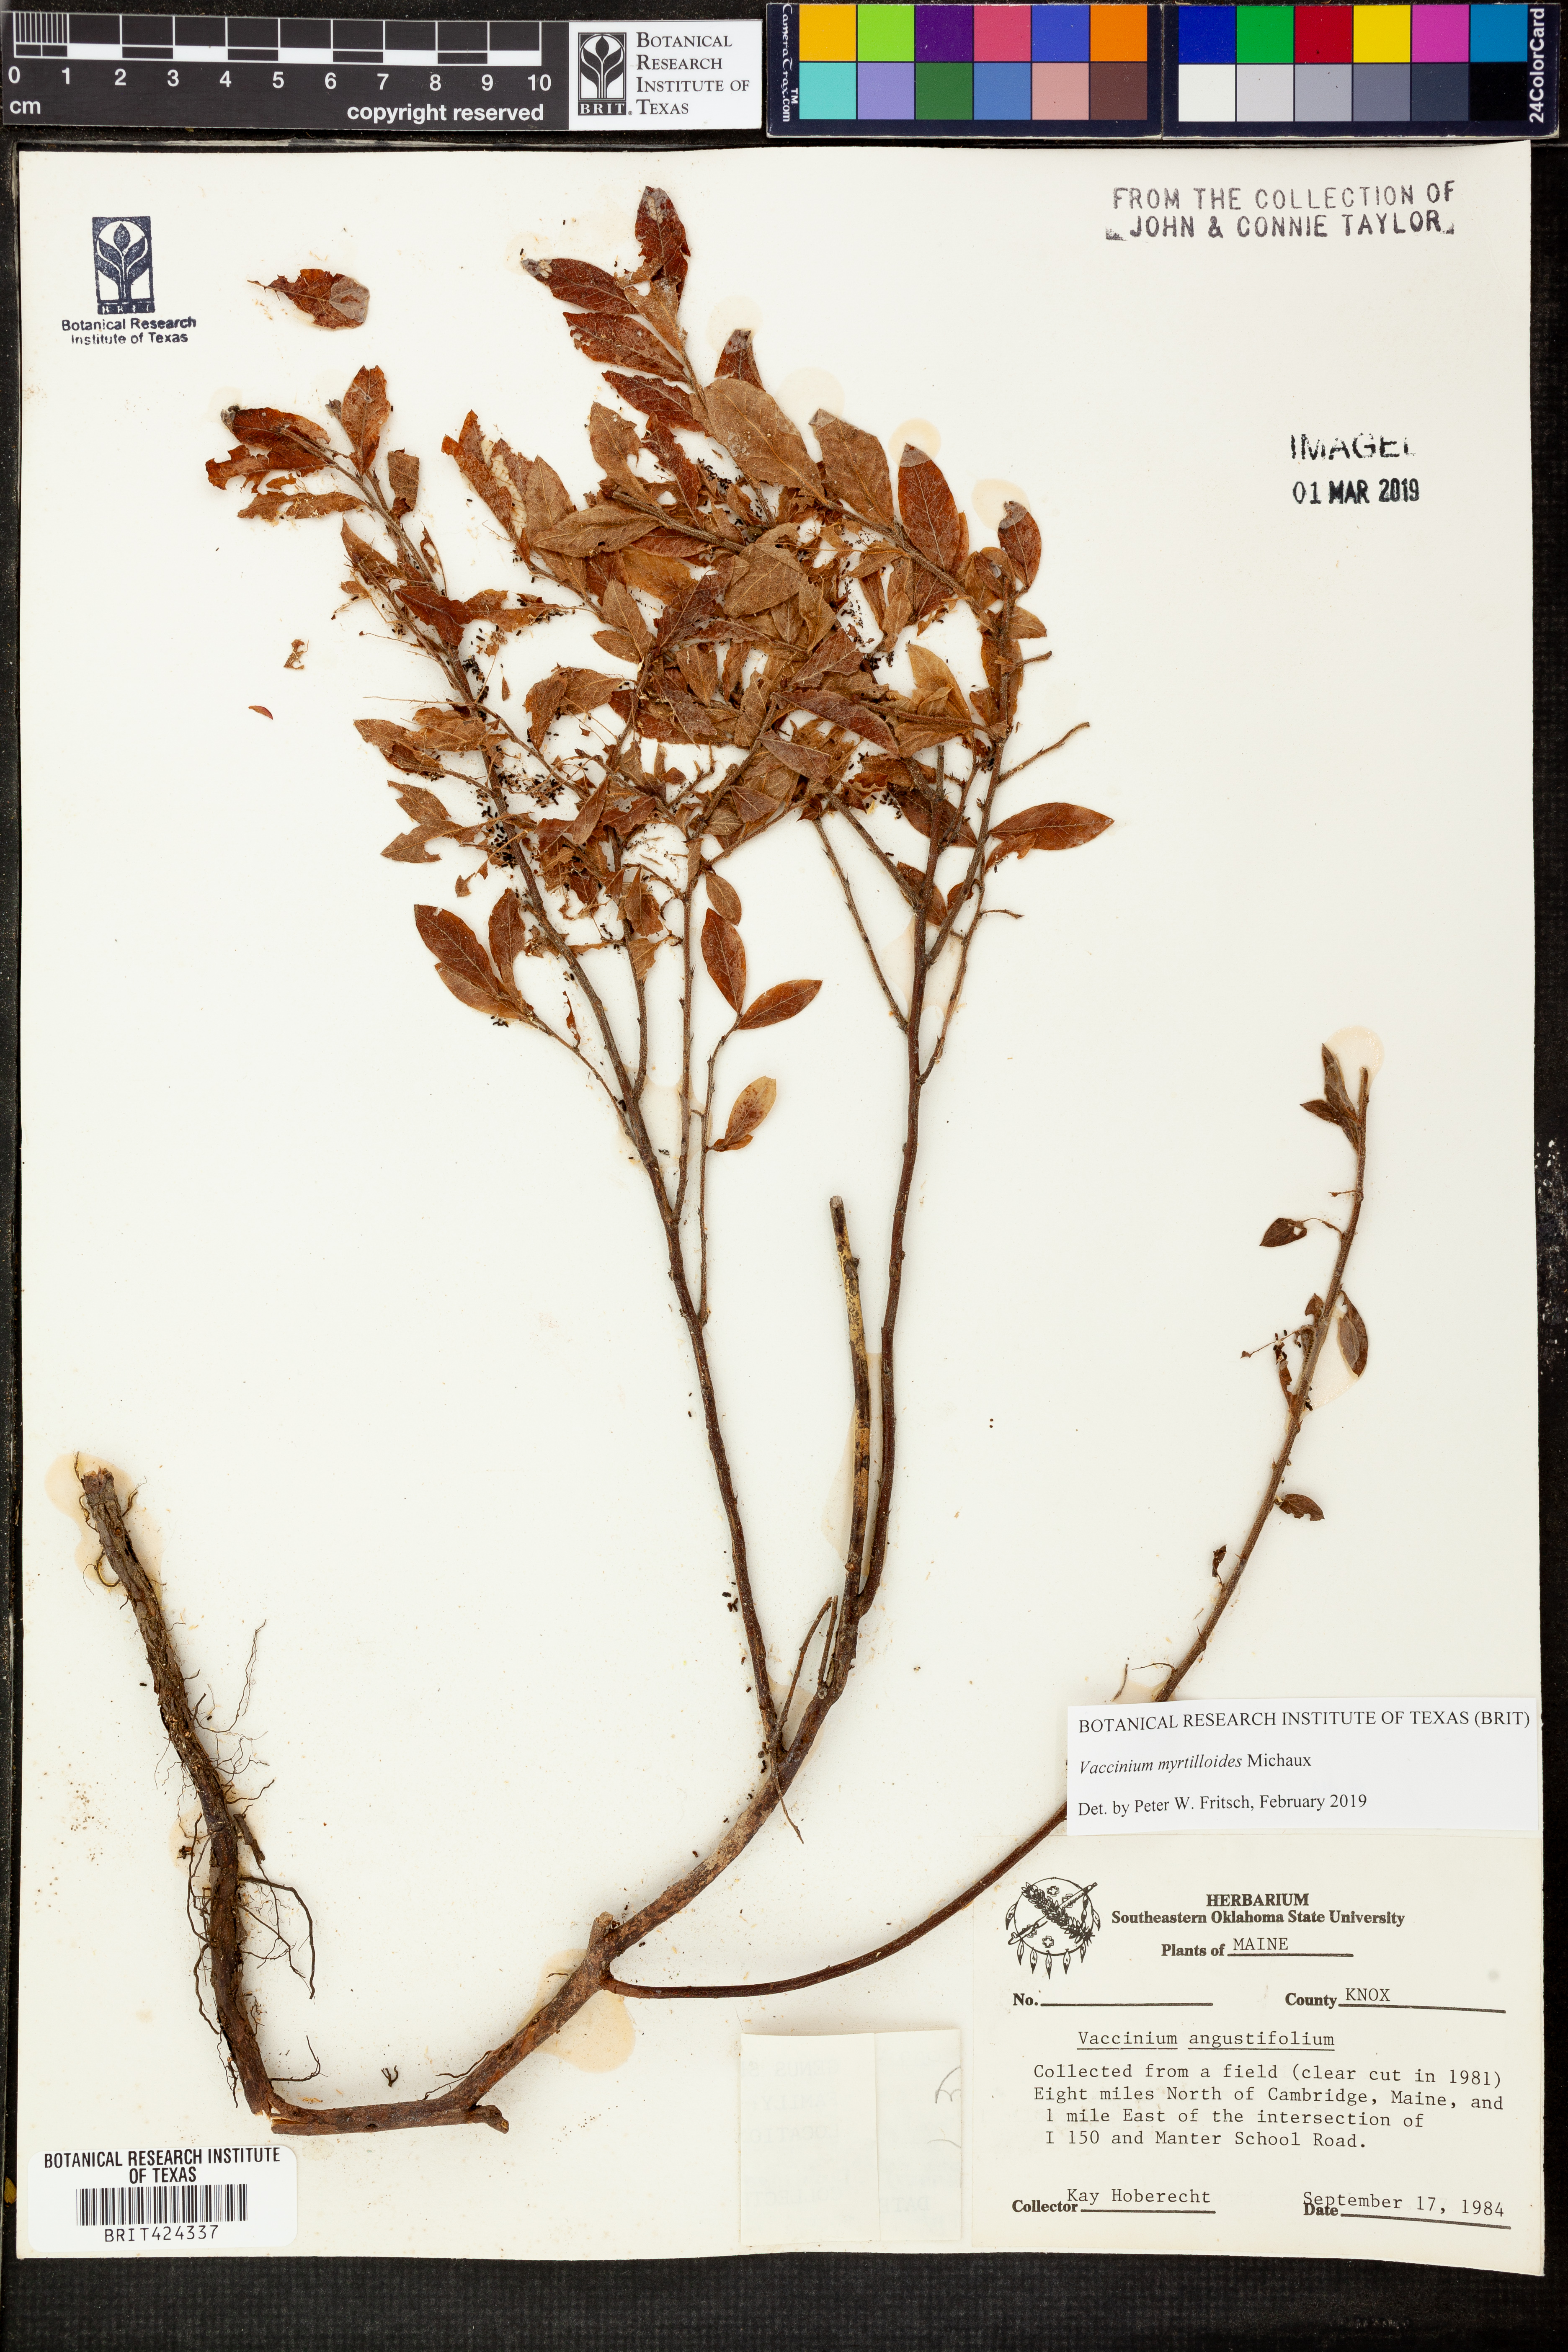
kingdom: Plantae
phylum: Tracheophyta
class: Magnoliopsida
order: Ericales
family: Ericaceae
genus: Vaccinium
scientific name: Vaccinium myrtilloides
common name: Canada blueberry
